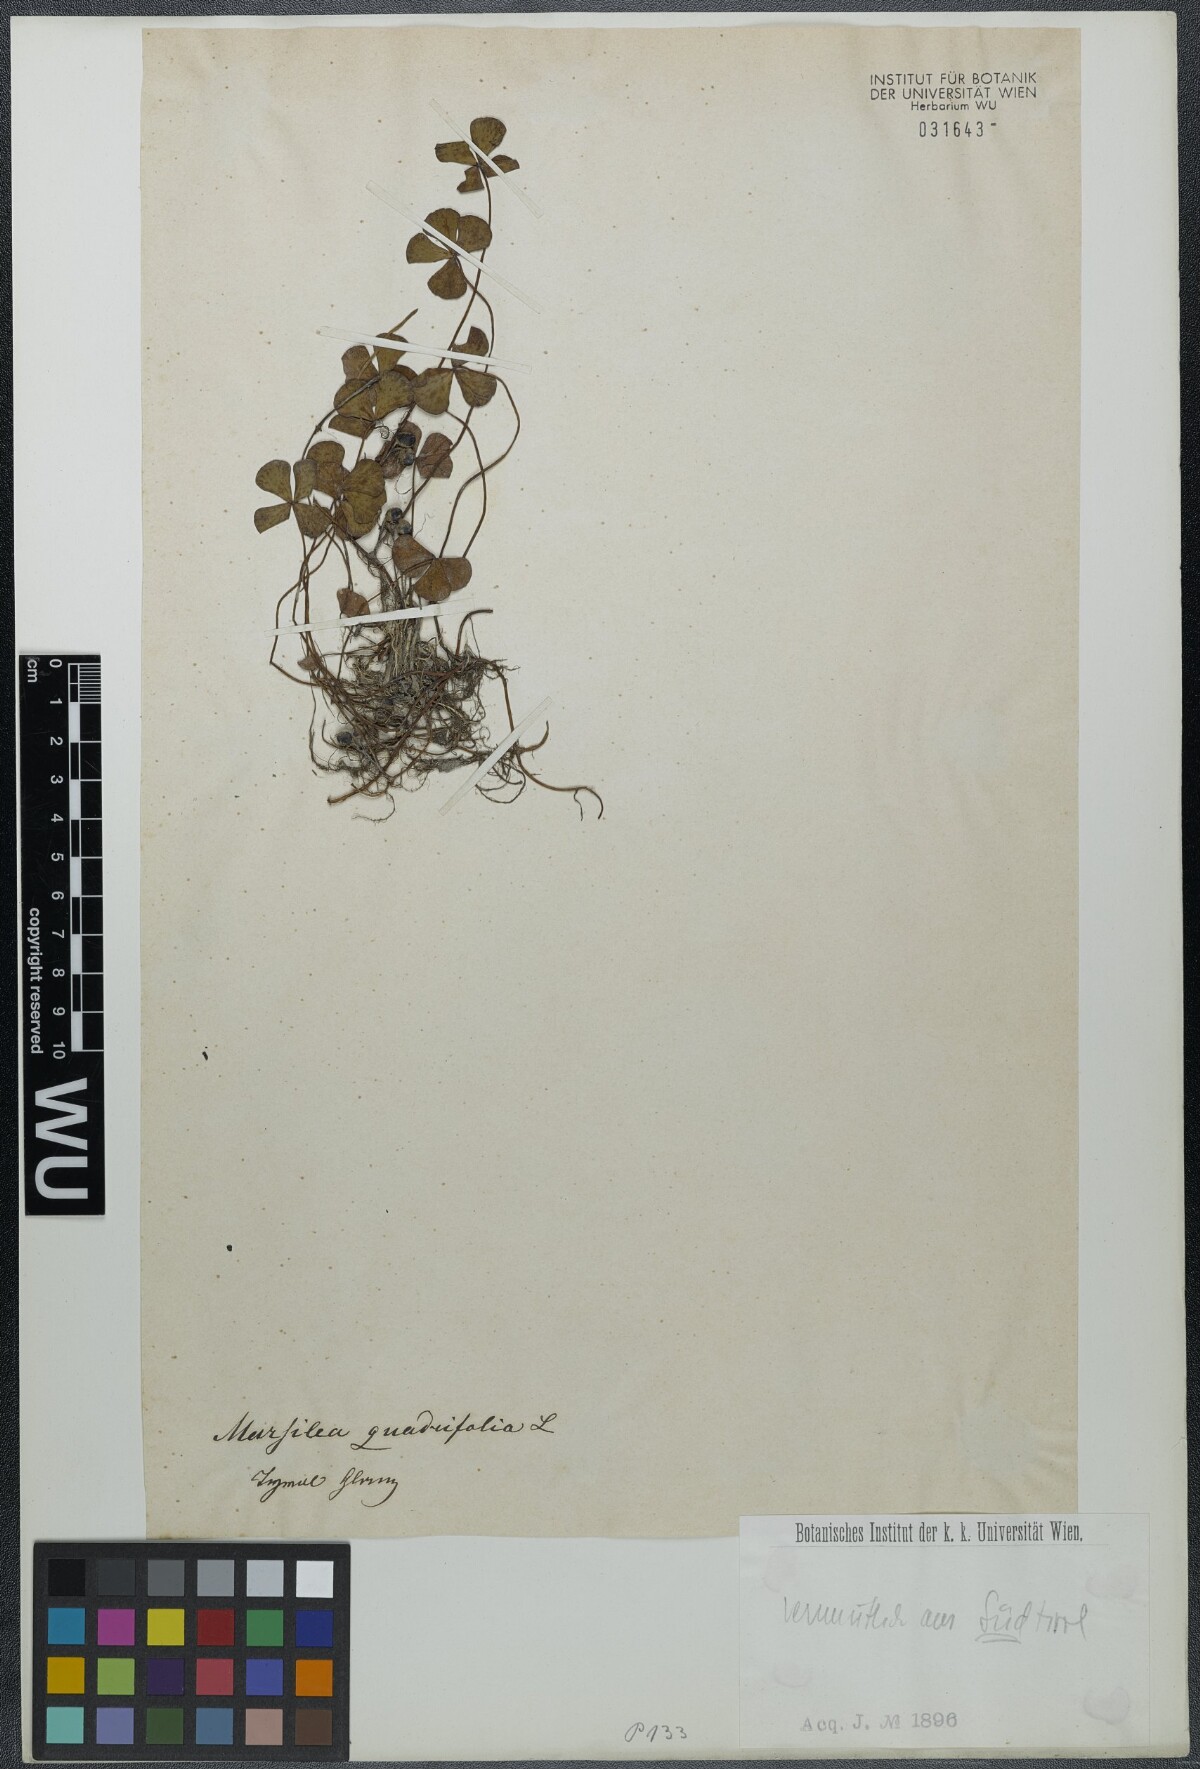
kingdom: Plantae
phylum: Tracheophyta
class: Polypodiopsida
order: Salviniales
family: Marsileaceae
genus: Marsilea
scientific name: Marsilea quadrifolia
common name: Water shamrock
